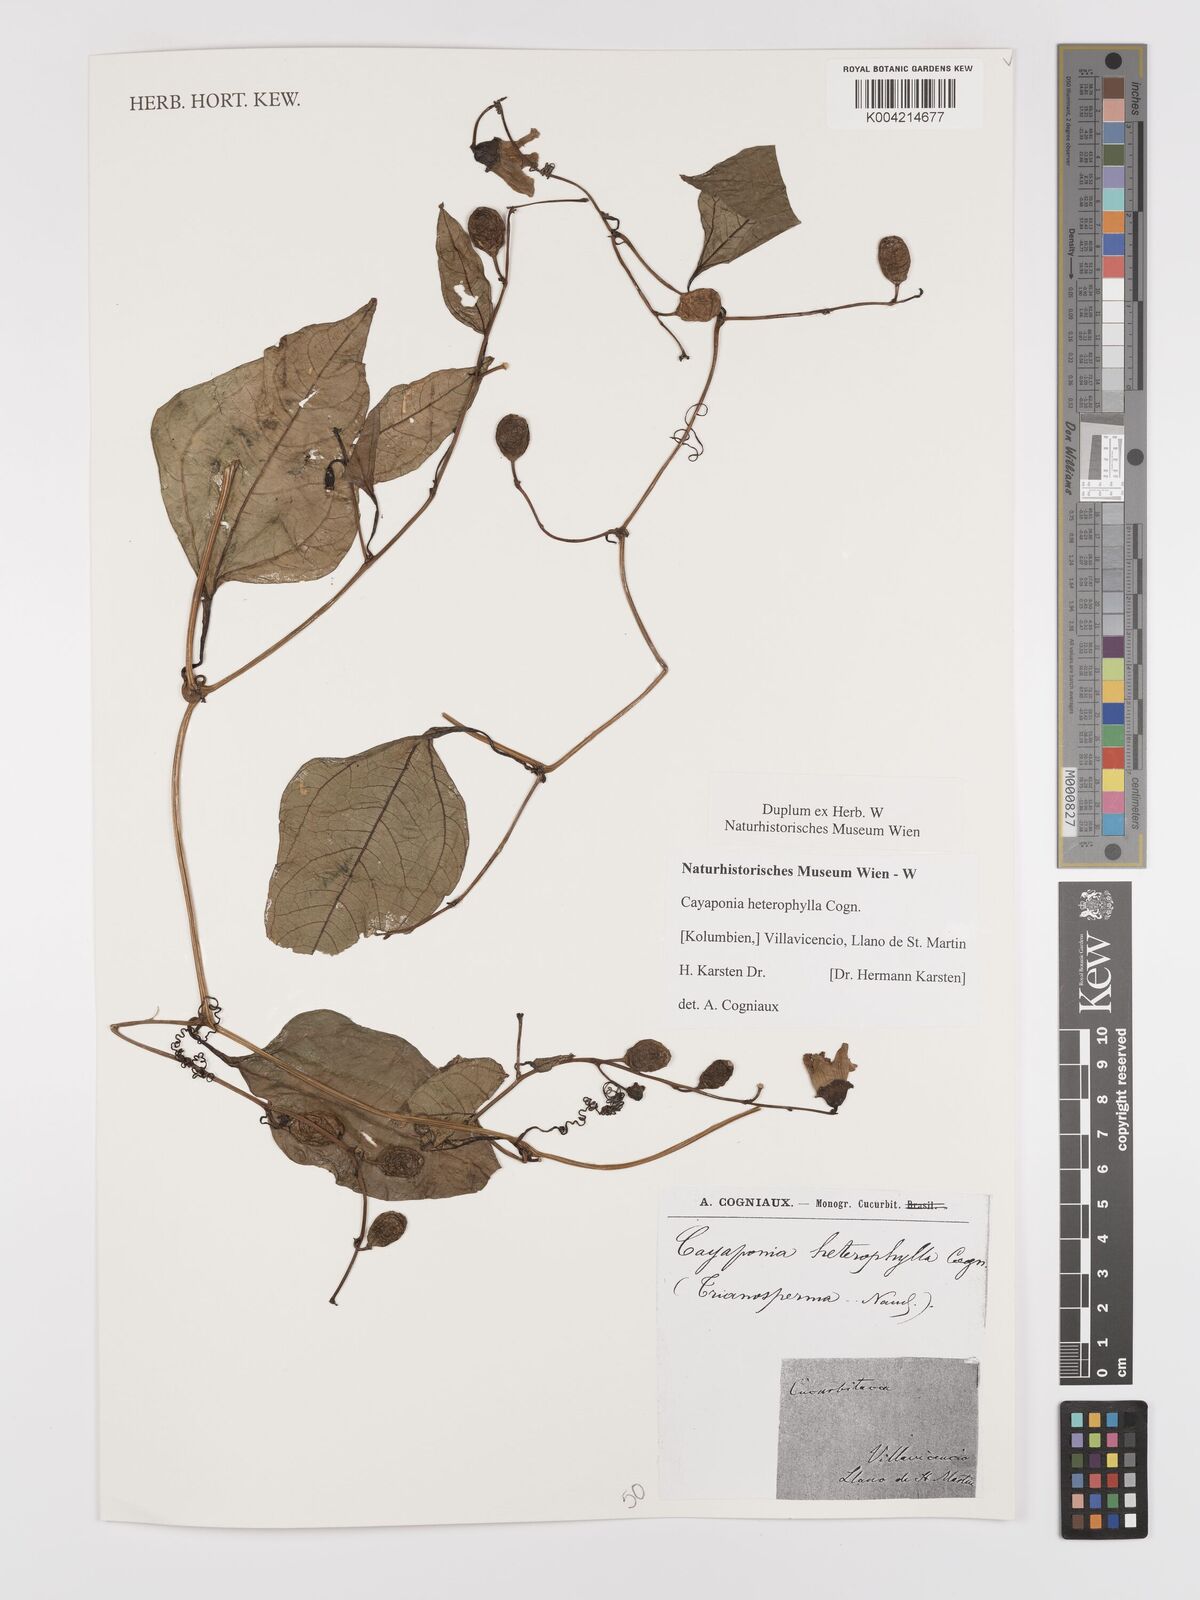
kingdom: Plantae
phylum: Tracheophyta
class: Magnoliopsida
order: Cucurbitales
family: Cucurbitaceae
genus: Cayaponia
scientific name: Cayaponia glandulosa
